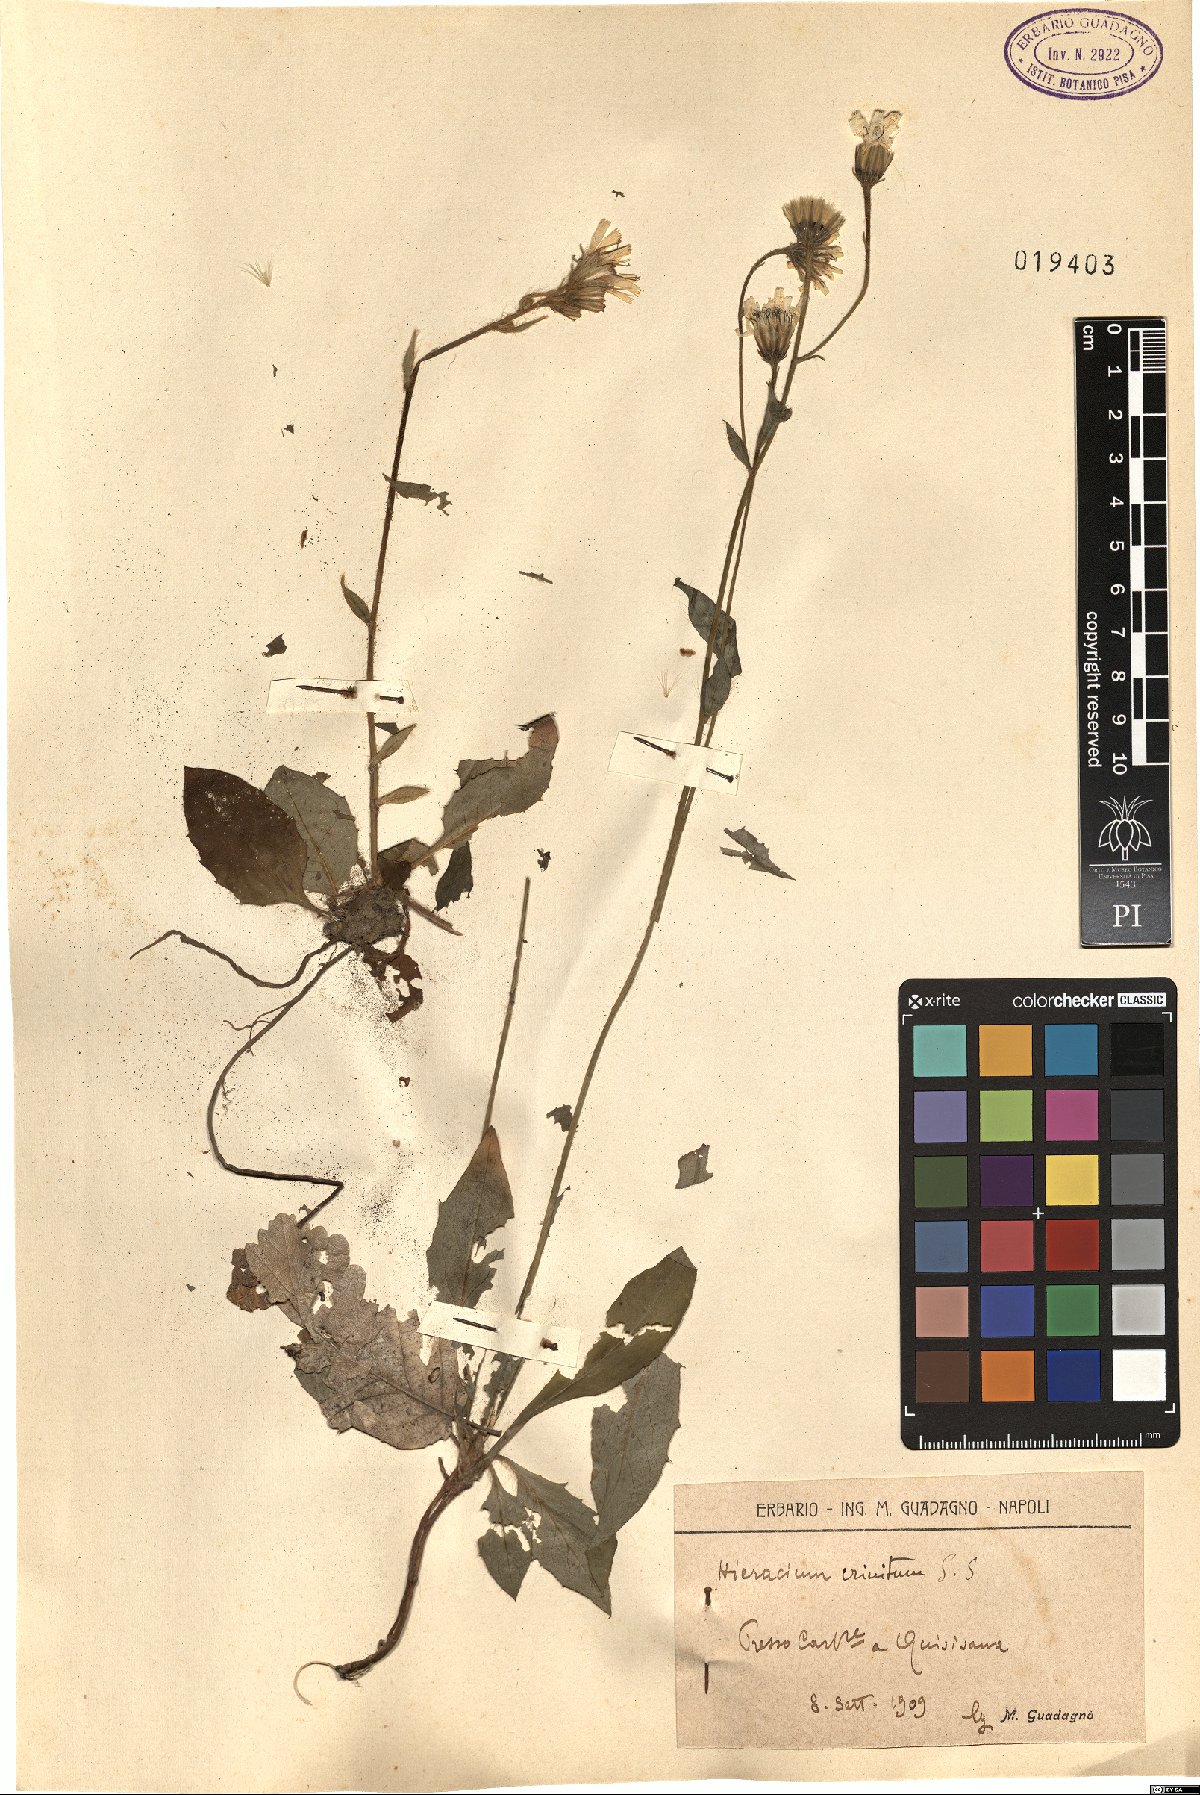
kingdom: Plantae
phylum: Tracheophyta
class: Magnoliopsida
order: Asterales
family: Asteraceae
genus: Hieracium
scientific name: Hieracium racemosum
